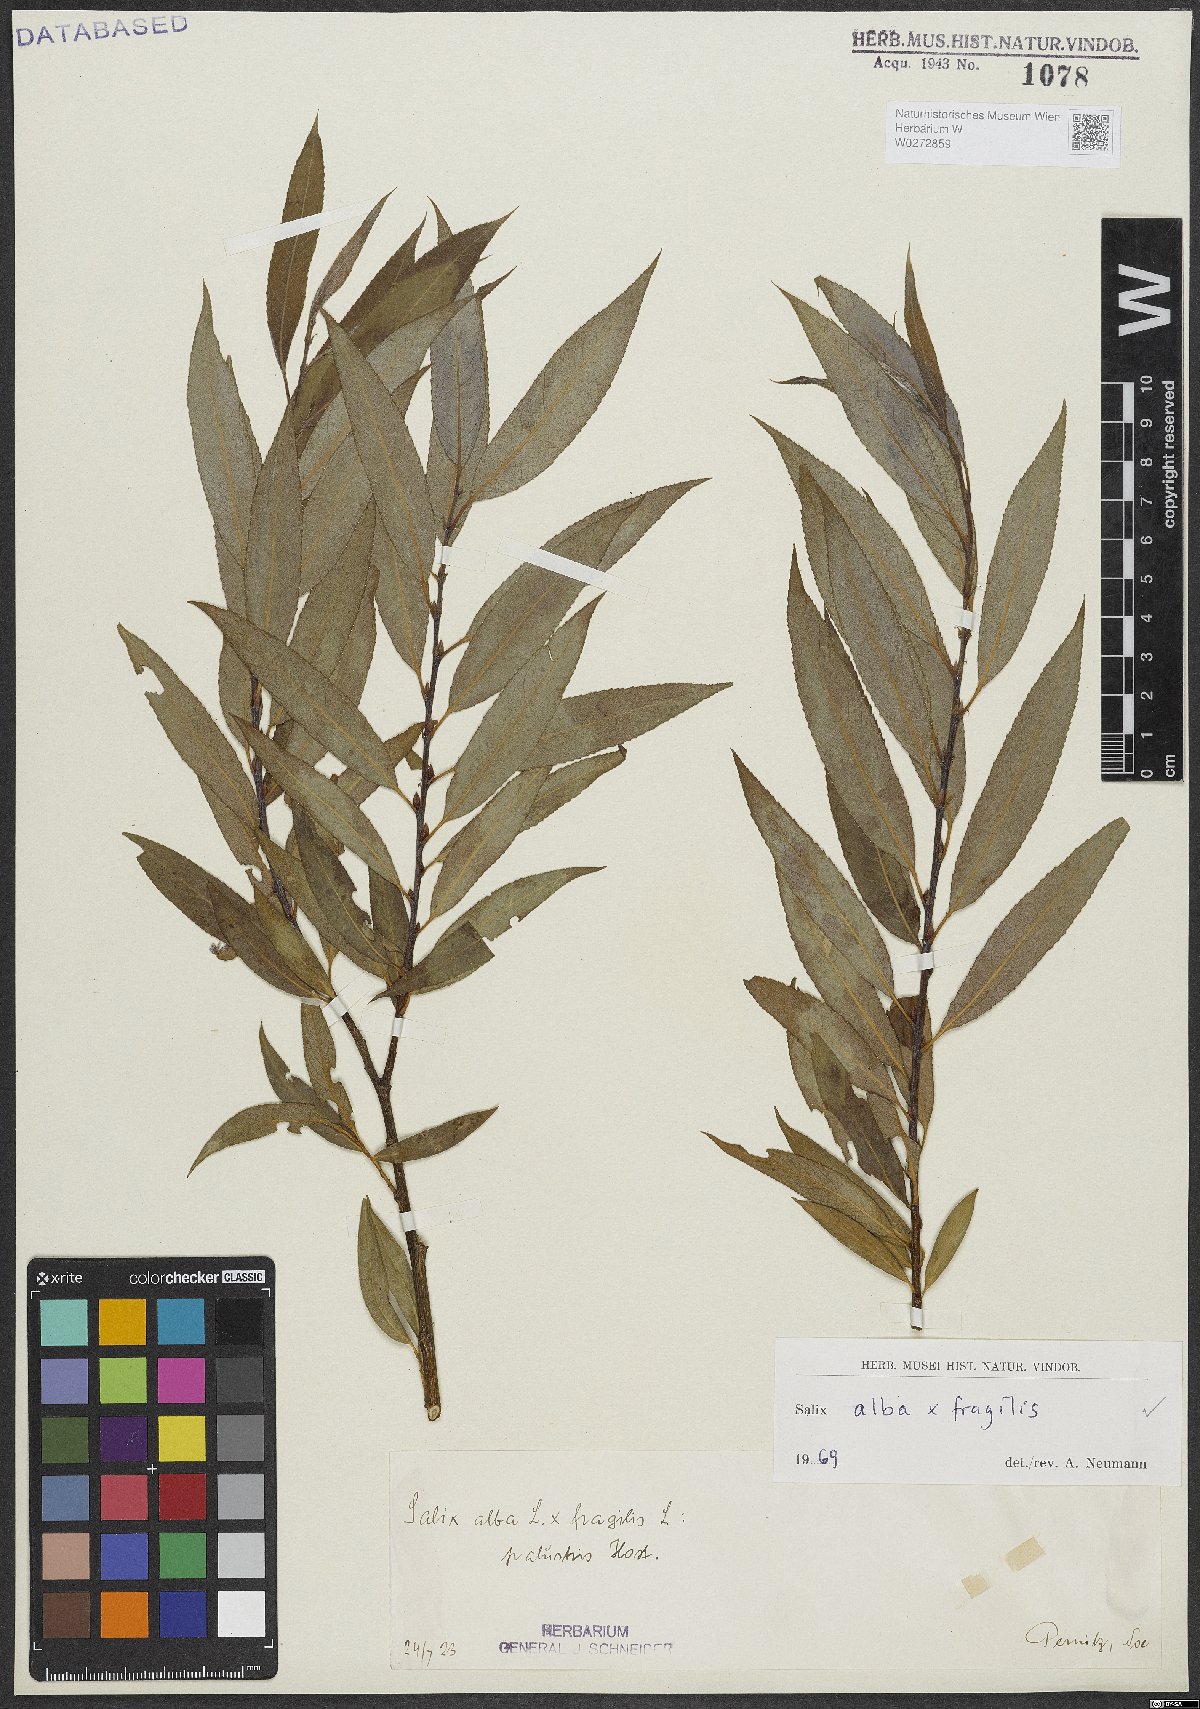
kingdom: Plantae
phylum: Tracheophyta
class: Magnoliopsida
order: Malpighiales
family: Salicaceae
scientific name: Salicaceae
